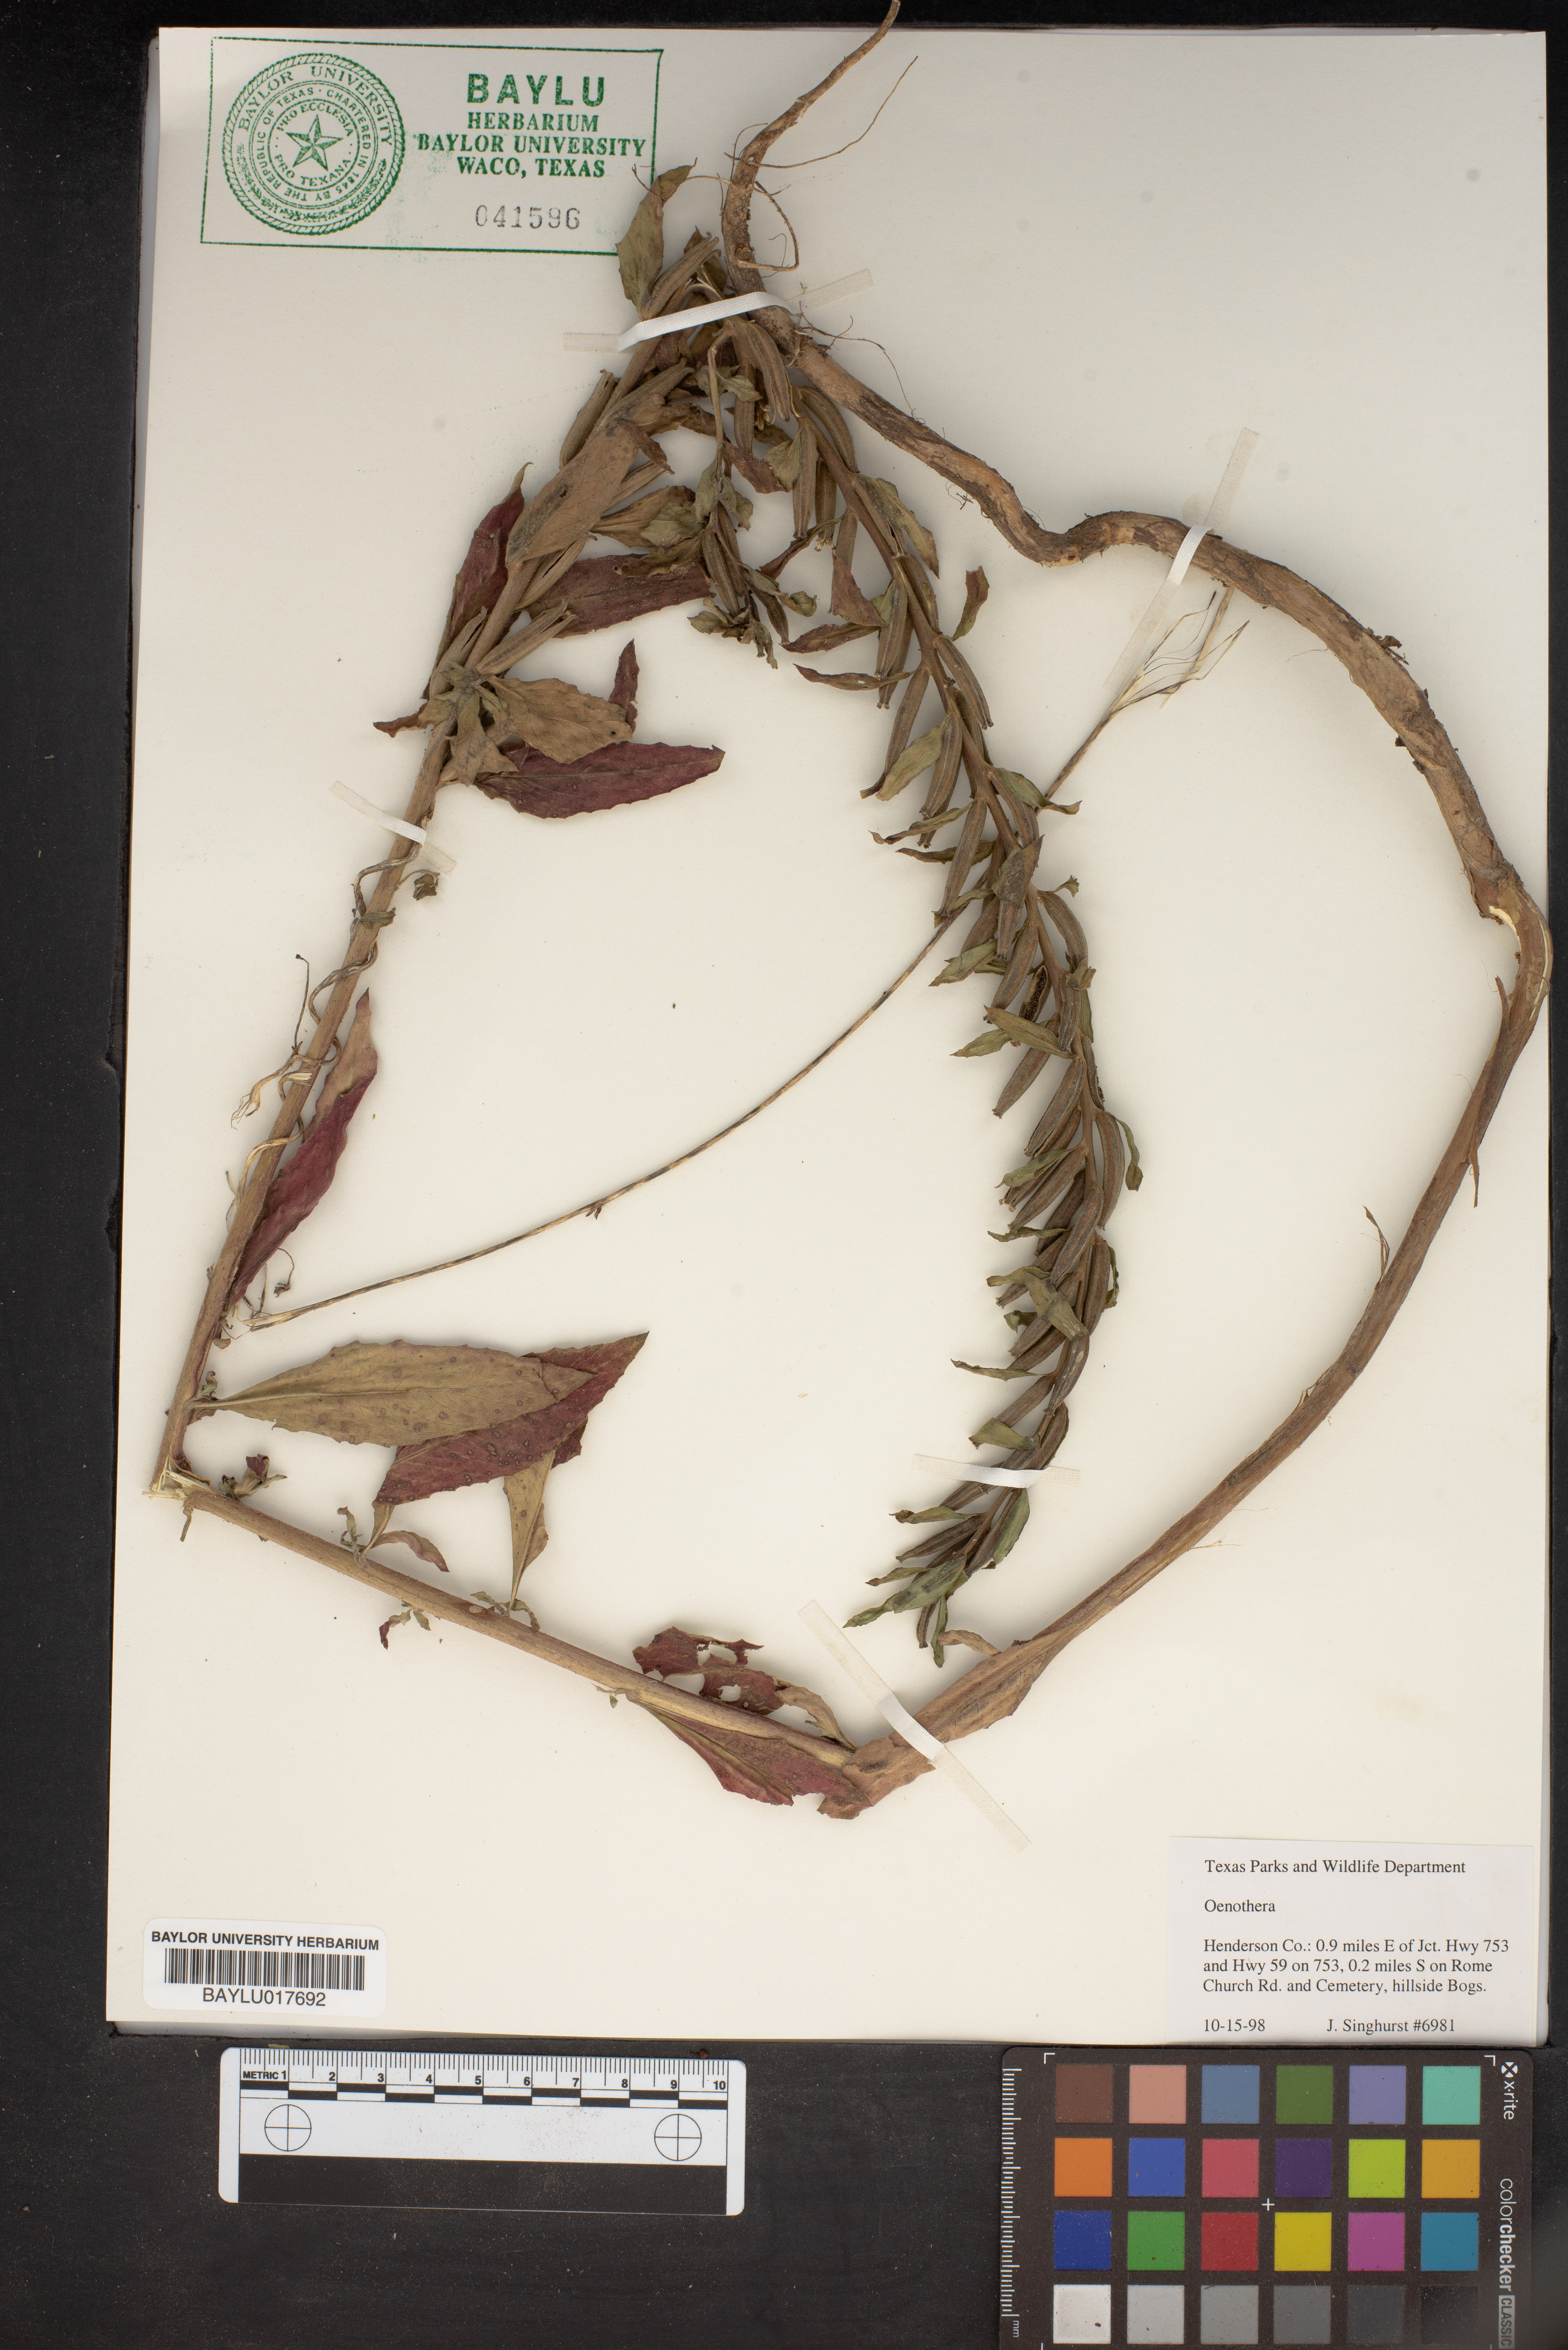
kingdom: Plantae
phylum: Tracheophyta
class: Magnoliopsida
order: Myrtales
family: Onagraceae
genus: Oenothera
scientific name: Oenothera
